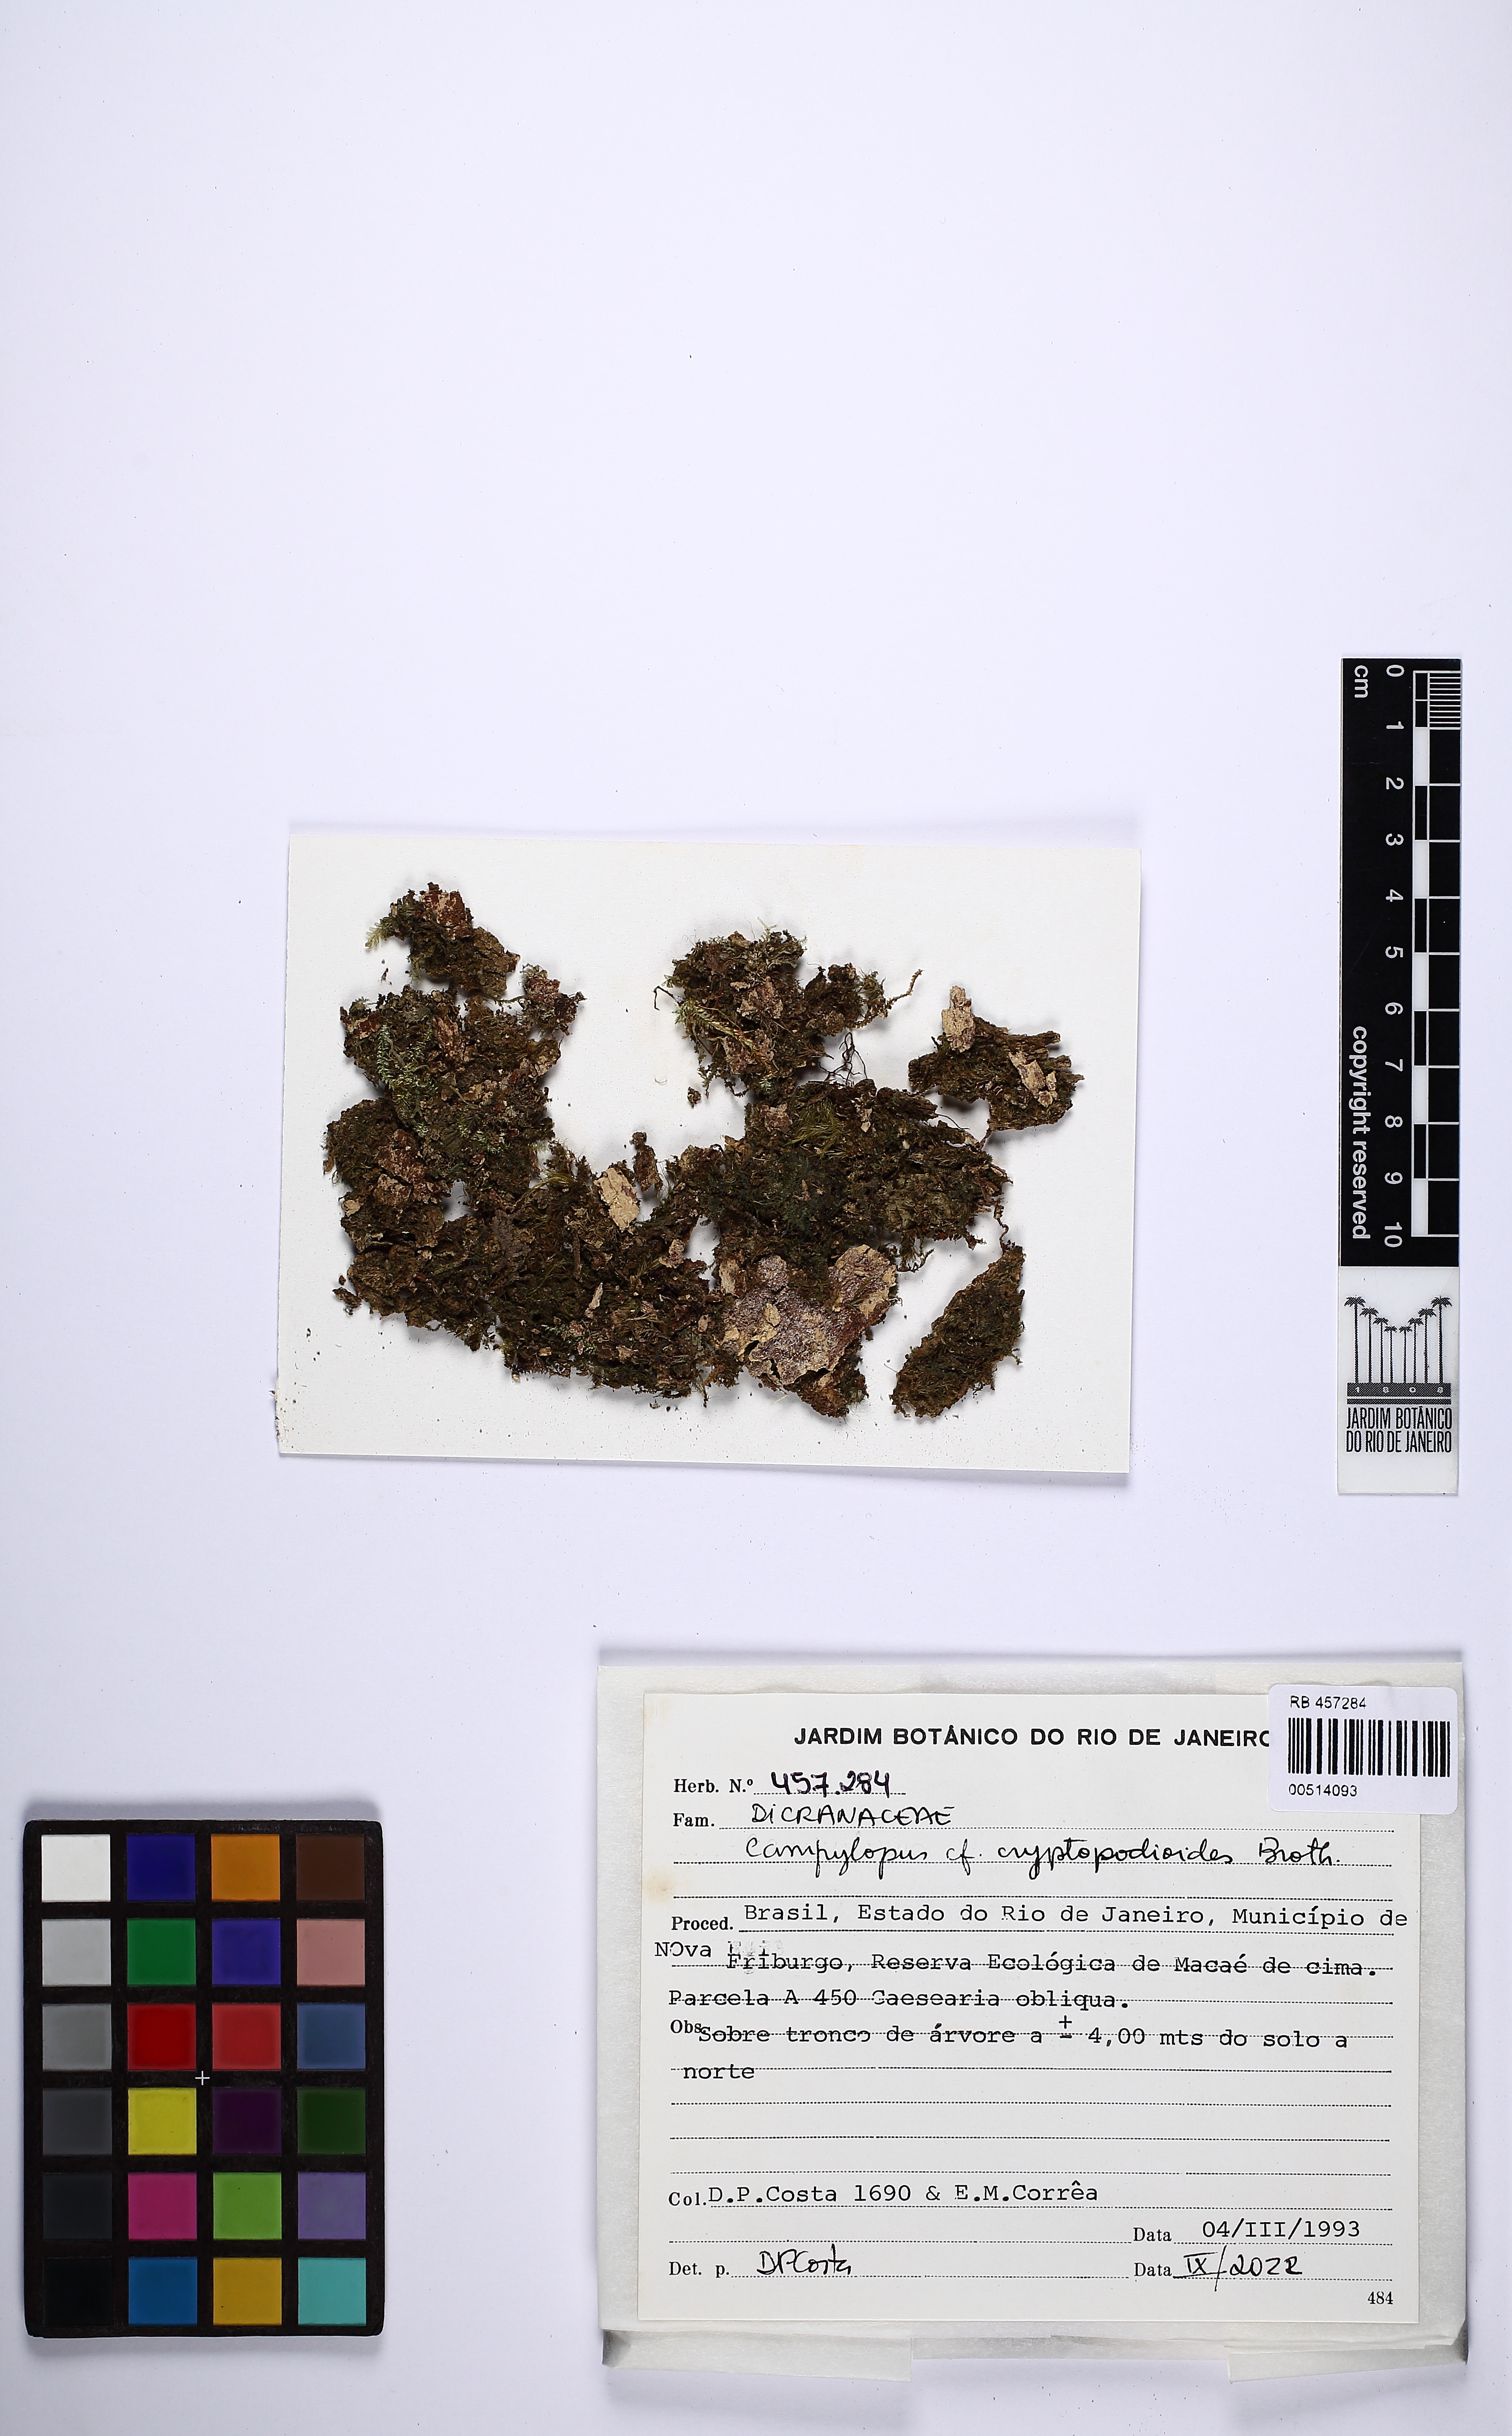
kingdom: Plantae
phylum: Bryophyta
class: Bryopsida
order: Dicranales
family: Leucobryaceae
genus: Campylopus
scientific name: Campylopus cryptopodioides
